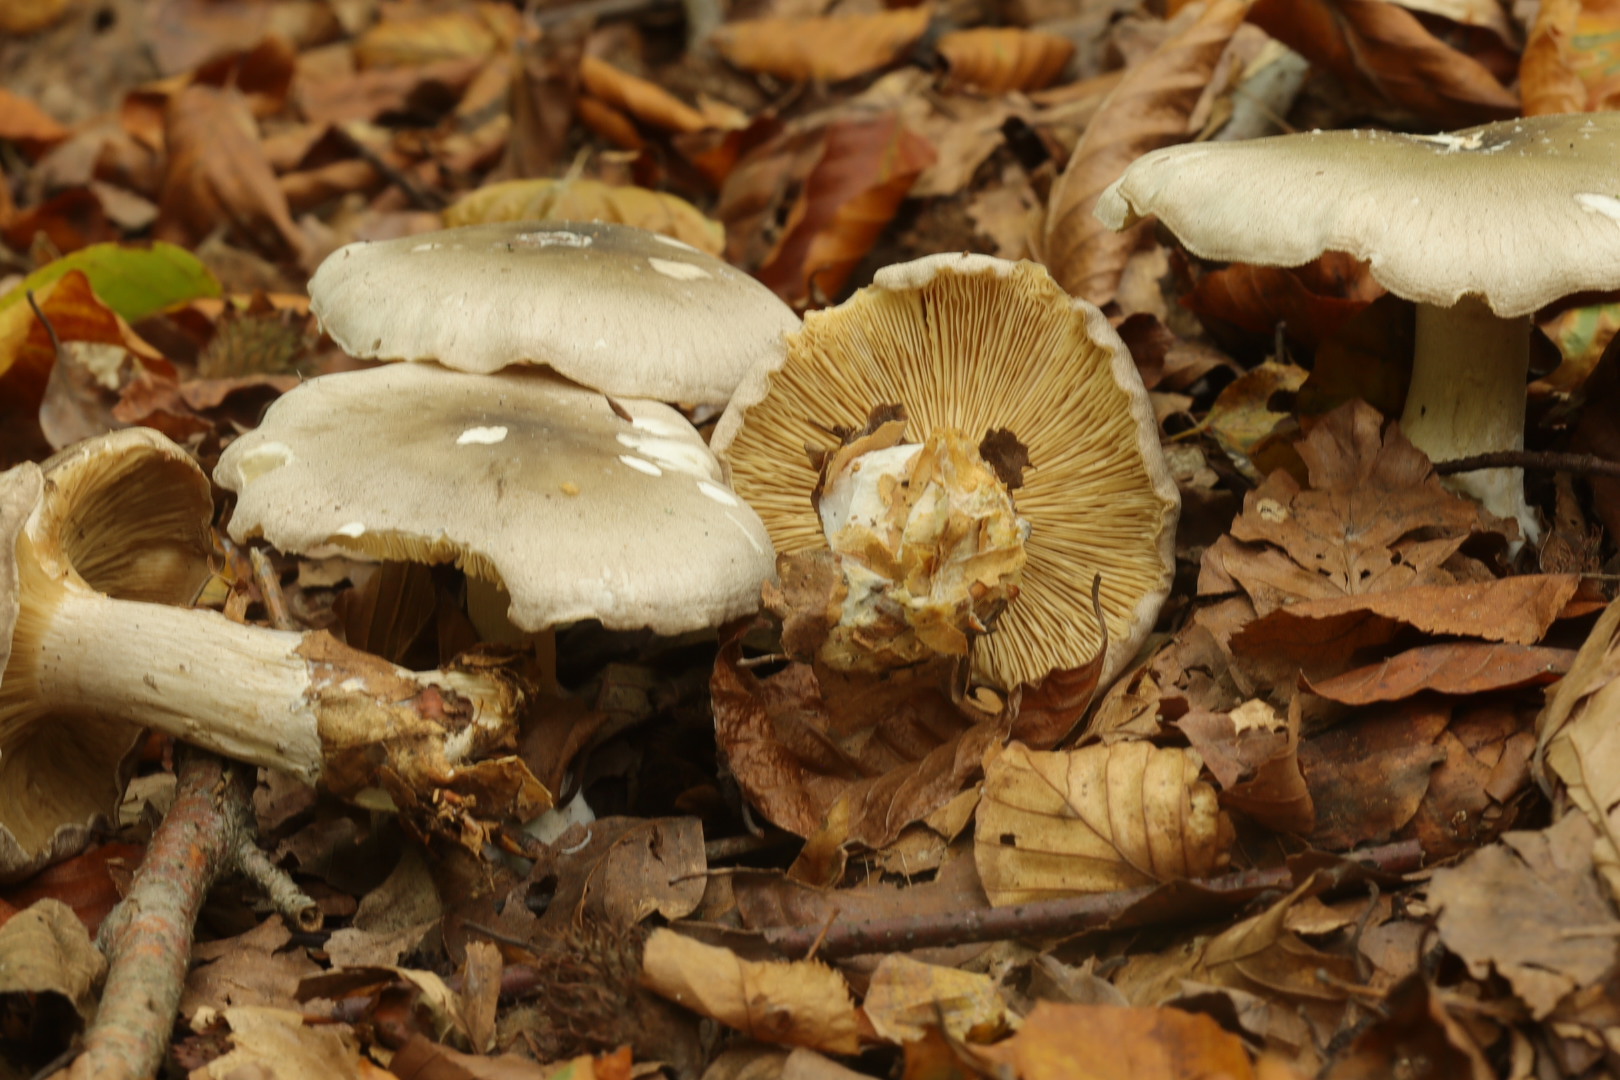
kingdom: Fungi
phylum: Basidiomycota
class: Agaricomycetes
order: Agaricales
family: Tricholomataceae
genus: Clitocybe
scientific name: Clitocybe nebularis
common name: tåge-tragthat
